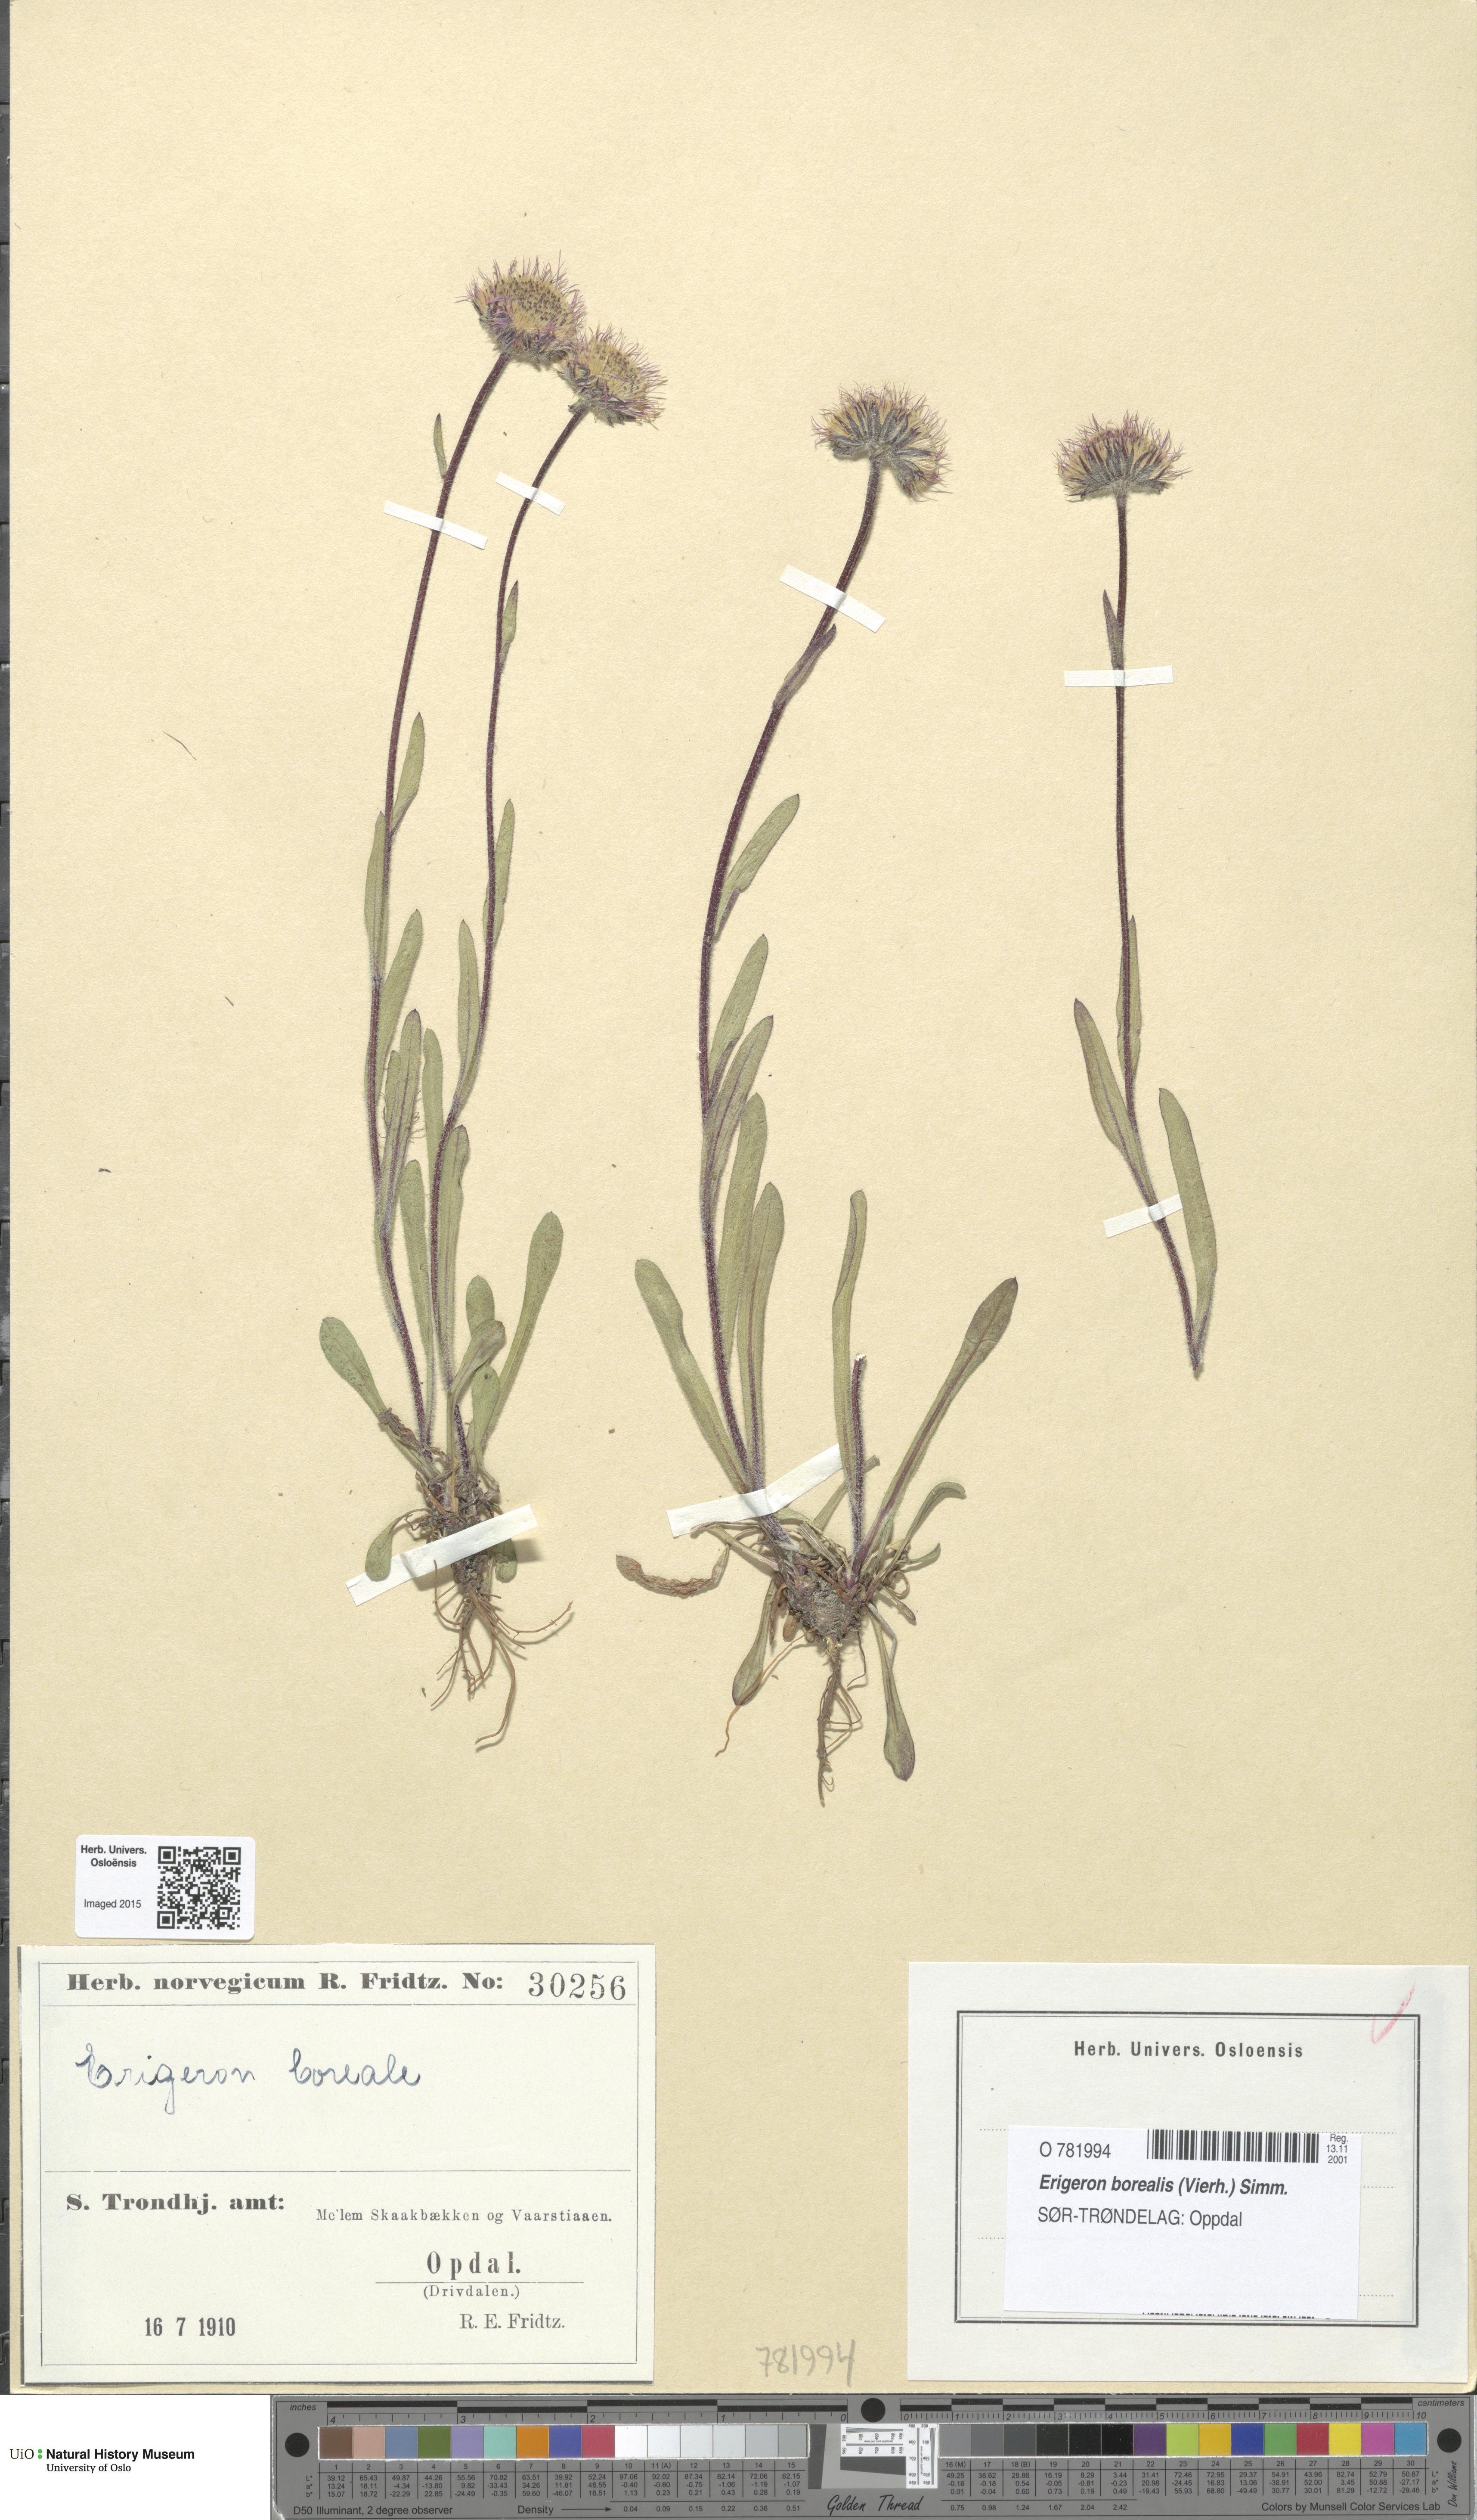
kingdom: Plantae
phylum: Tracheophyta
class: Magnoliopsida
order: Asterales
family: Asteraceae
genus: Erigeron
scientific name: Erigeron borealis
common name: Alpine fleabane
